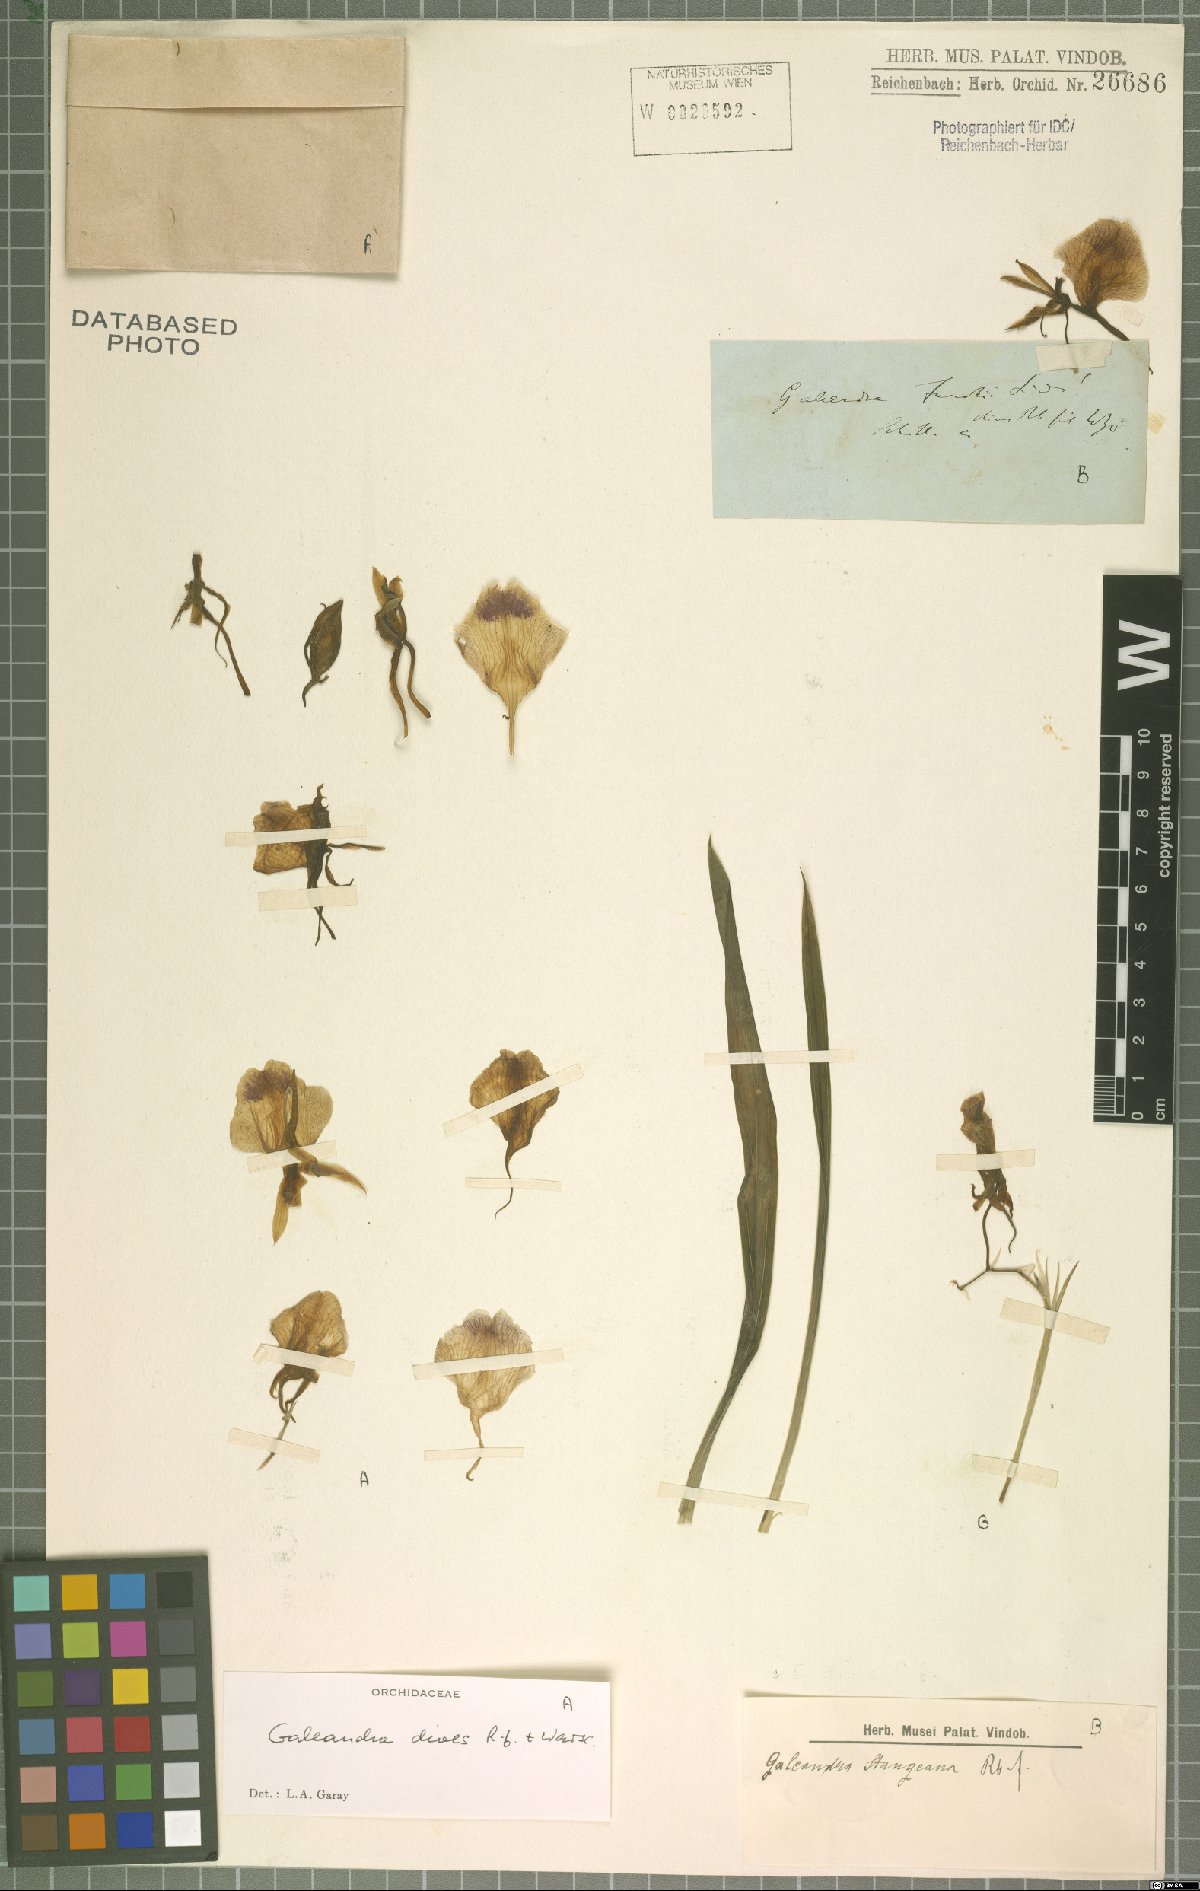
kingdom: Plantae
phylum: Tracheophyta
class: Liliopsida
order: Asparagales
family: Orchidaceae
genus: Galeandra
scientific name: Galeandra dives
